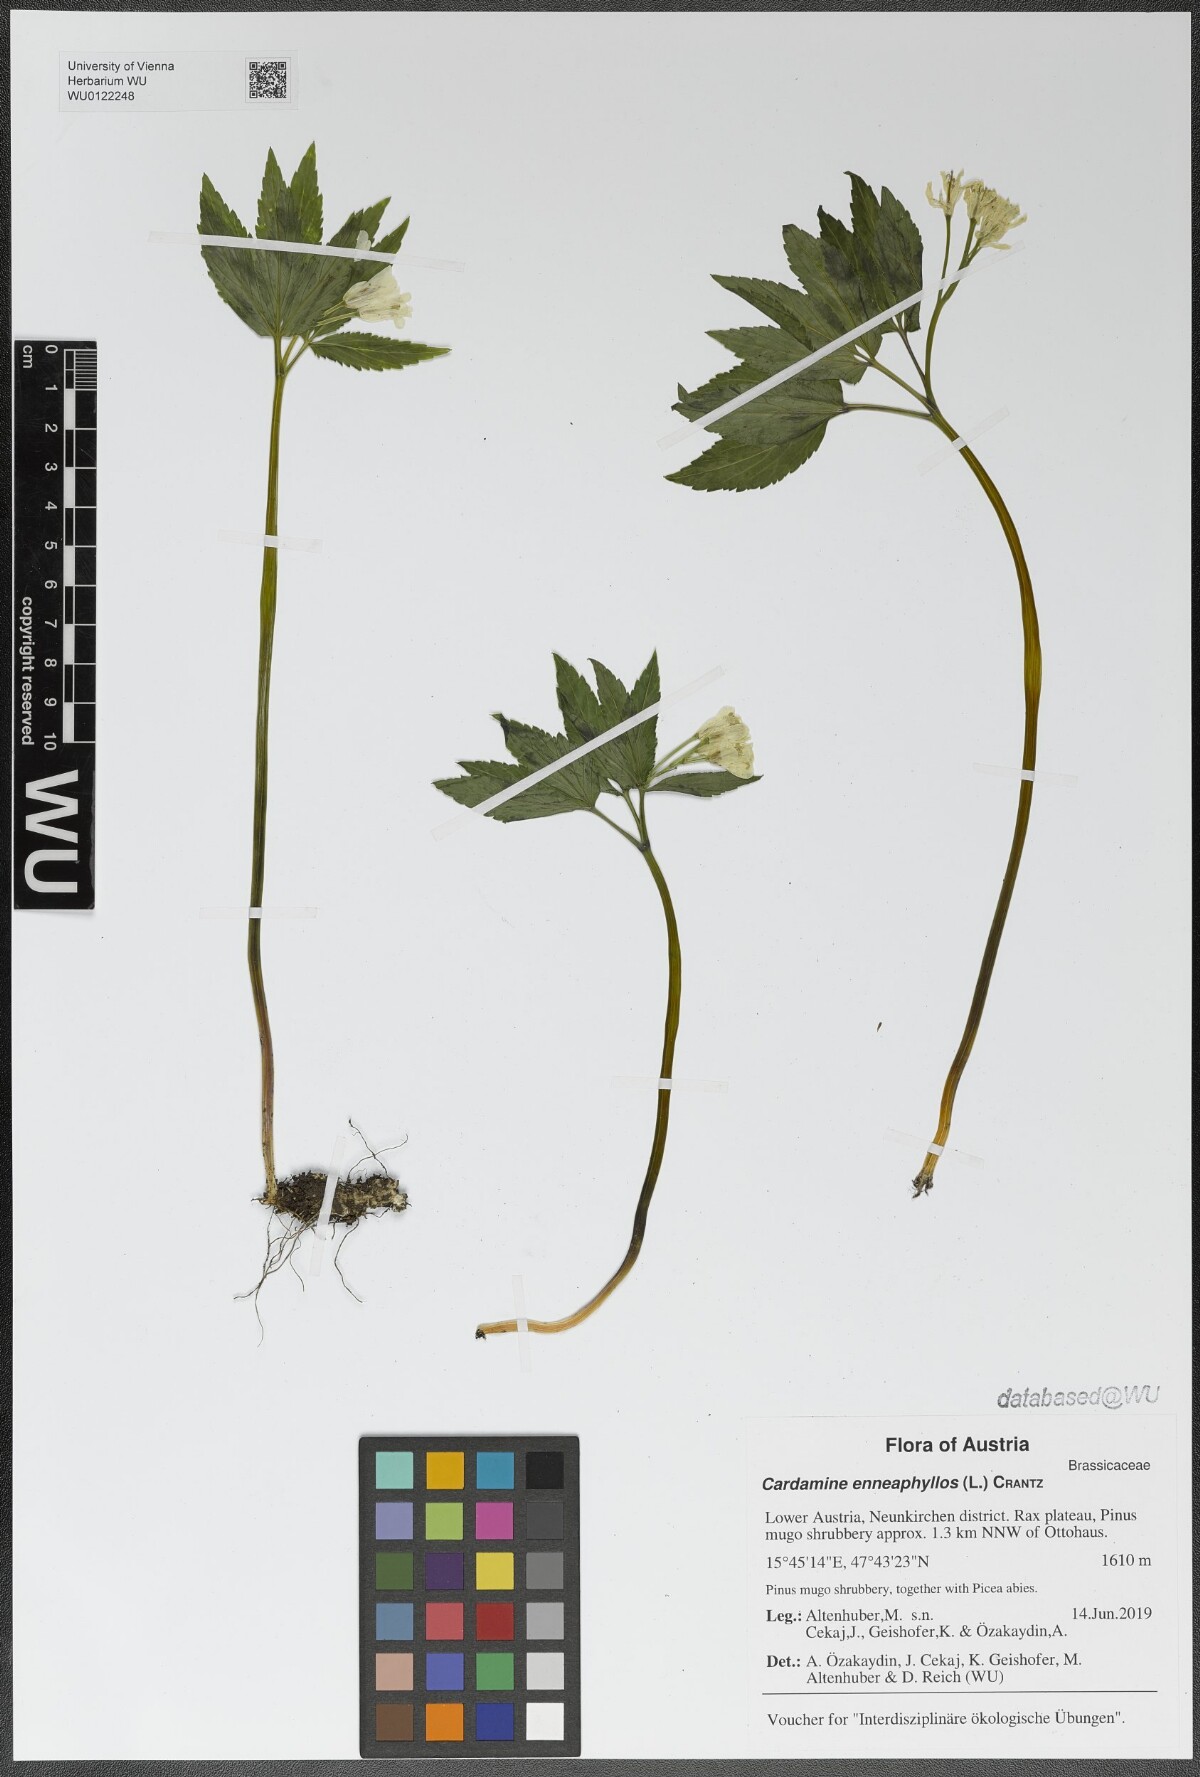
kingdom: Plantae
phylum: Tracheophyta
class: Magnoliopsida
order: Brassicales
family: Brassicaceae
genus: Cardamine
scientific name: Cardamine enneaphyllos
